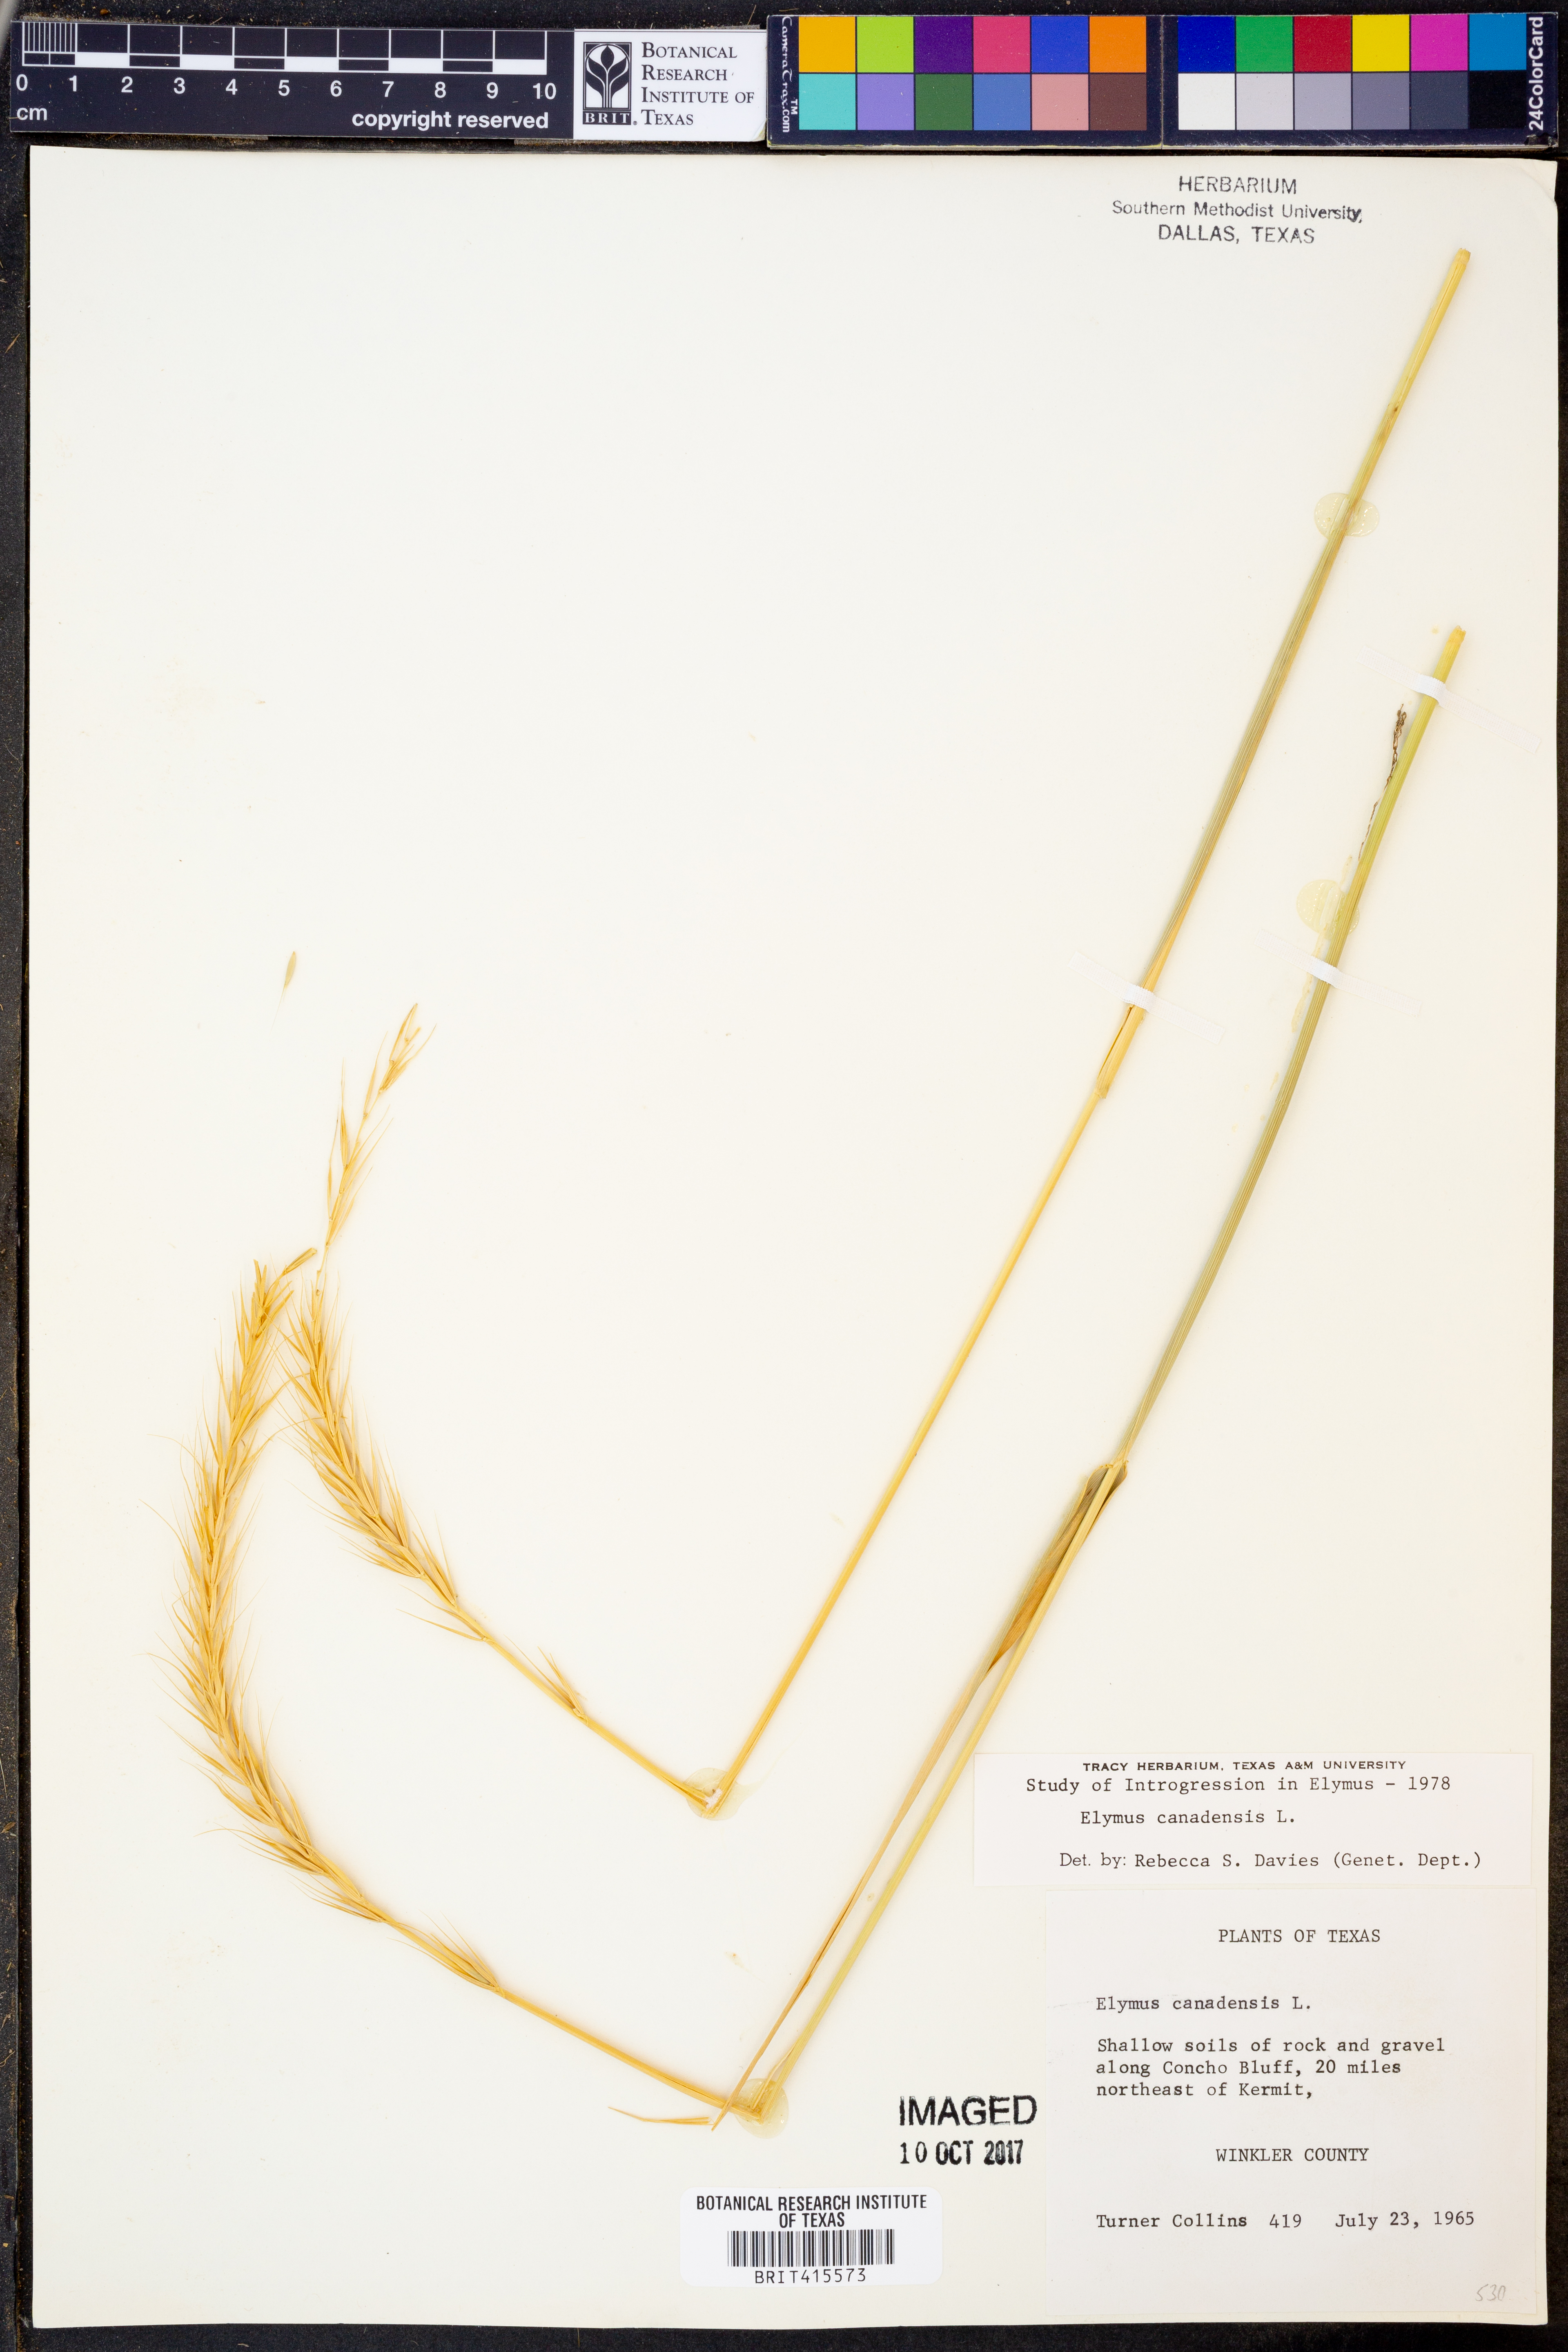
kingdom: Plantae
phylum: Tracheophyta
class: Liliopsida
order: Poales
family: Poaceae
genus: Elymus
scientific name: Elymus canadensis
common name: Canada wild rye
